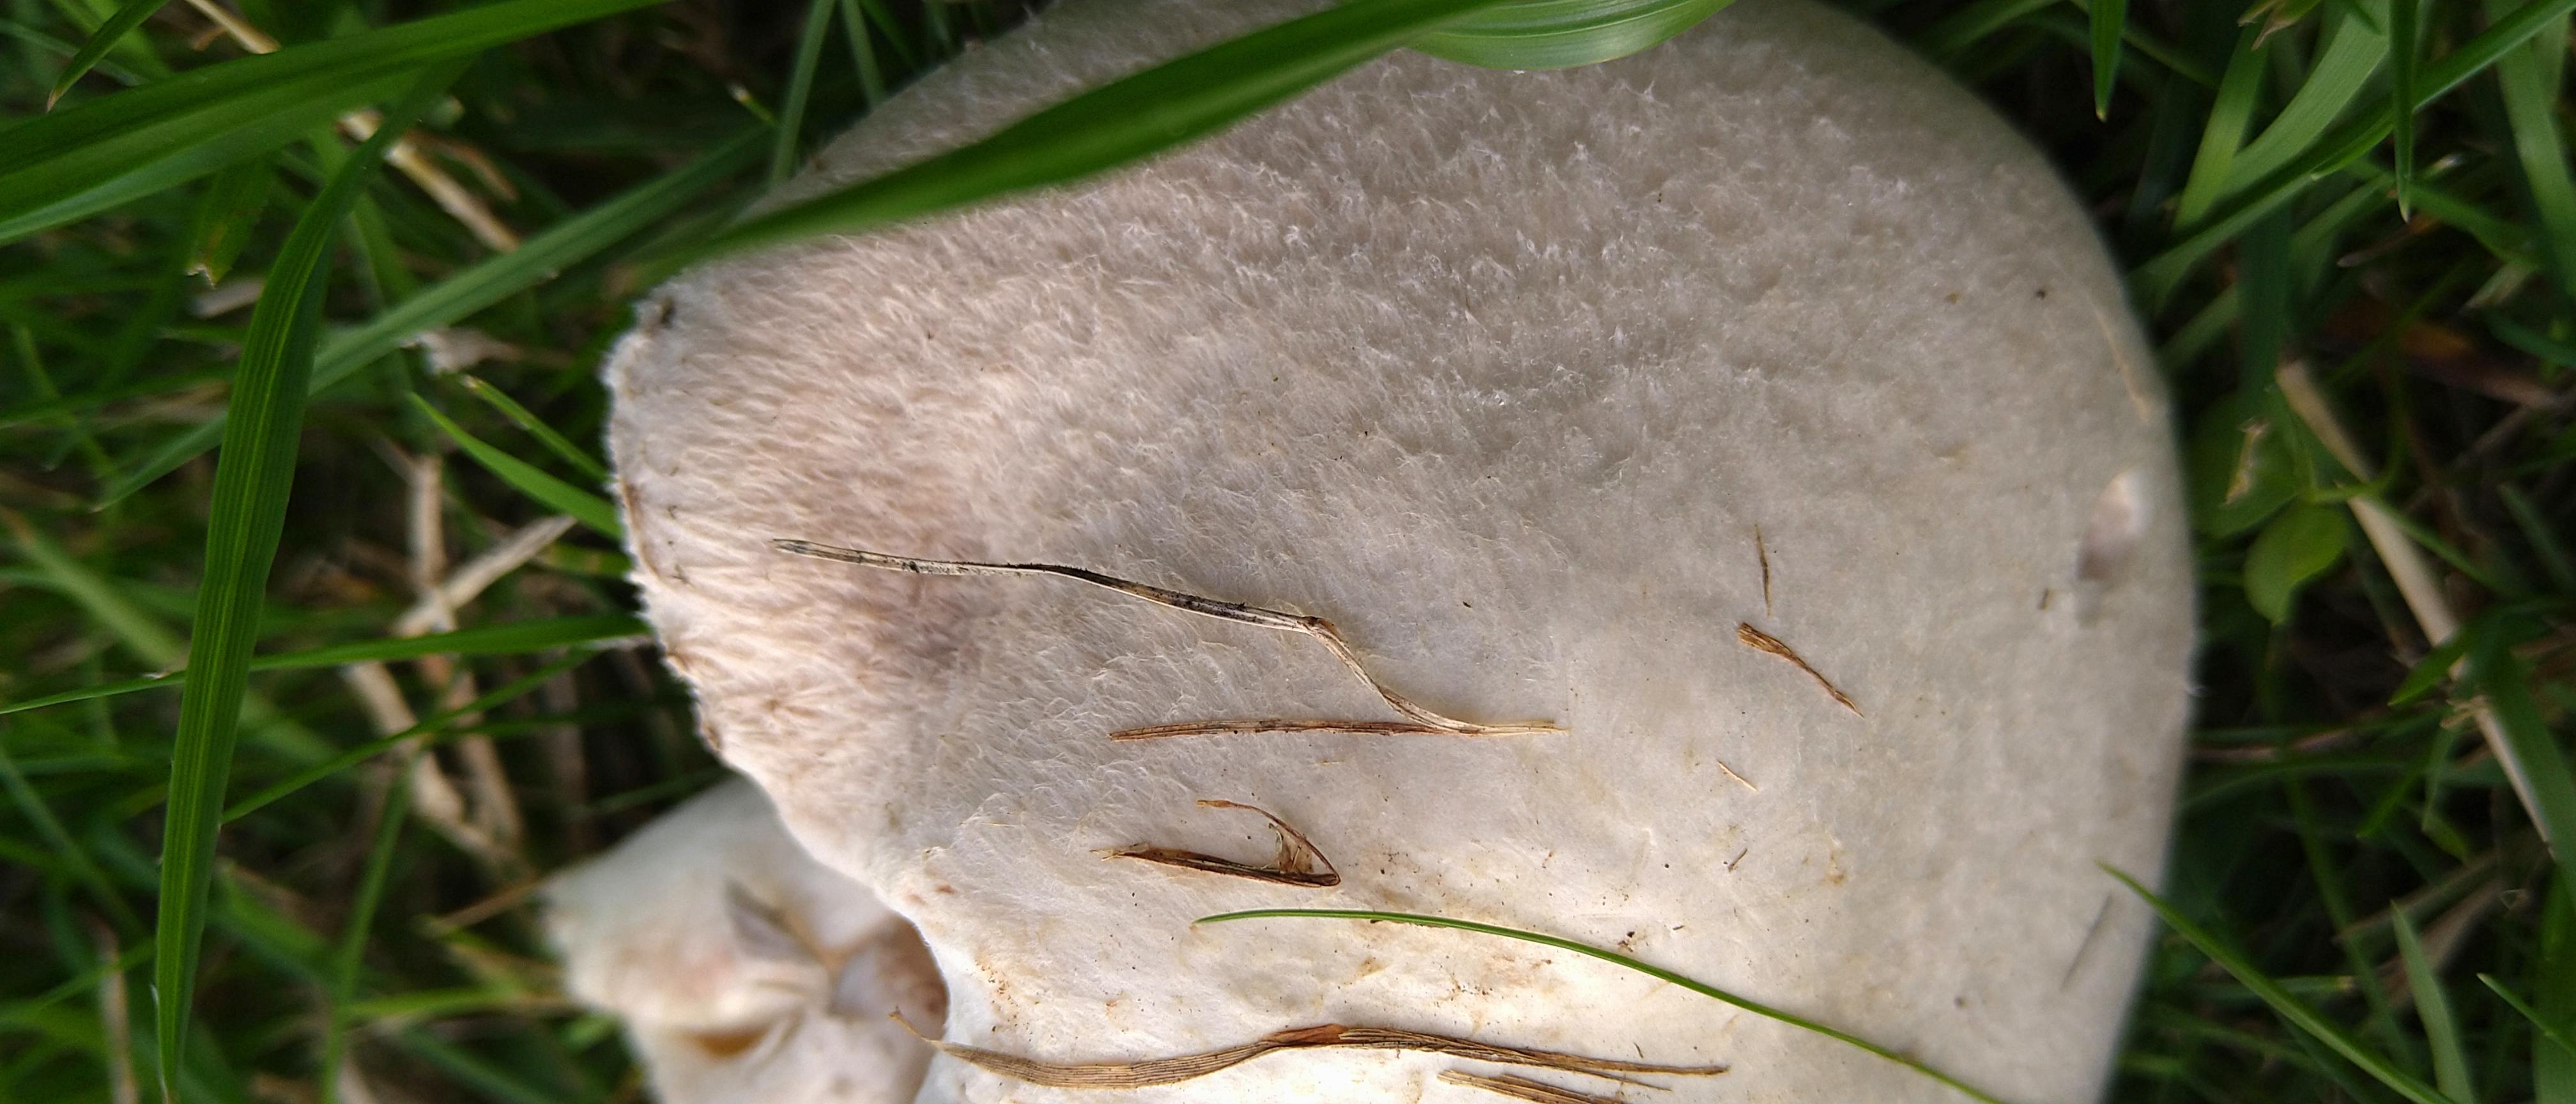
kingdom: Fungi
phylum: Basidiomycota
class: Agaricomycetes
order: Agaricales
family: Agaricaceae
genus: Agaricus
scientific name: Agaricus campestris
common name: mark-champignon
